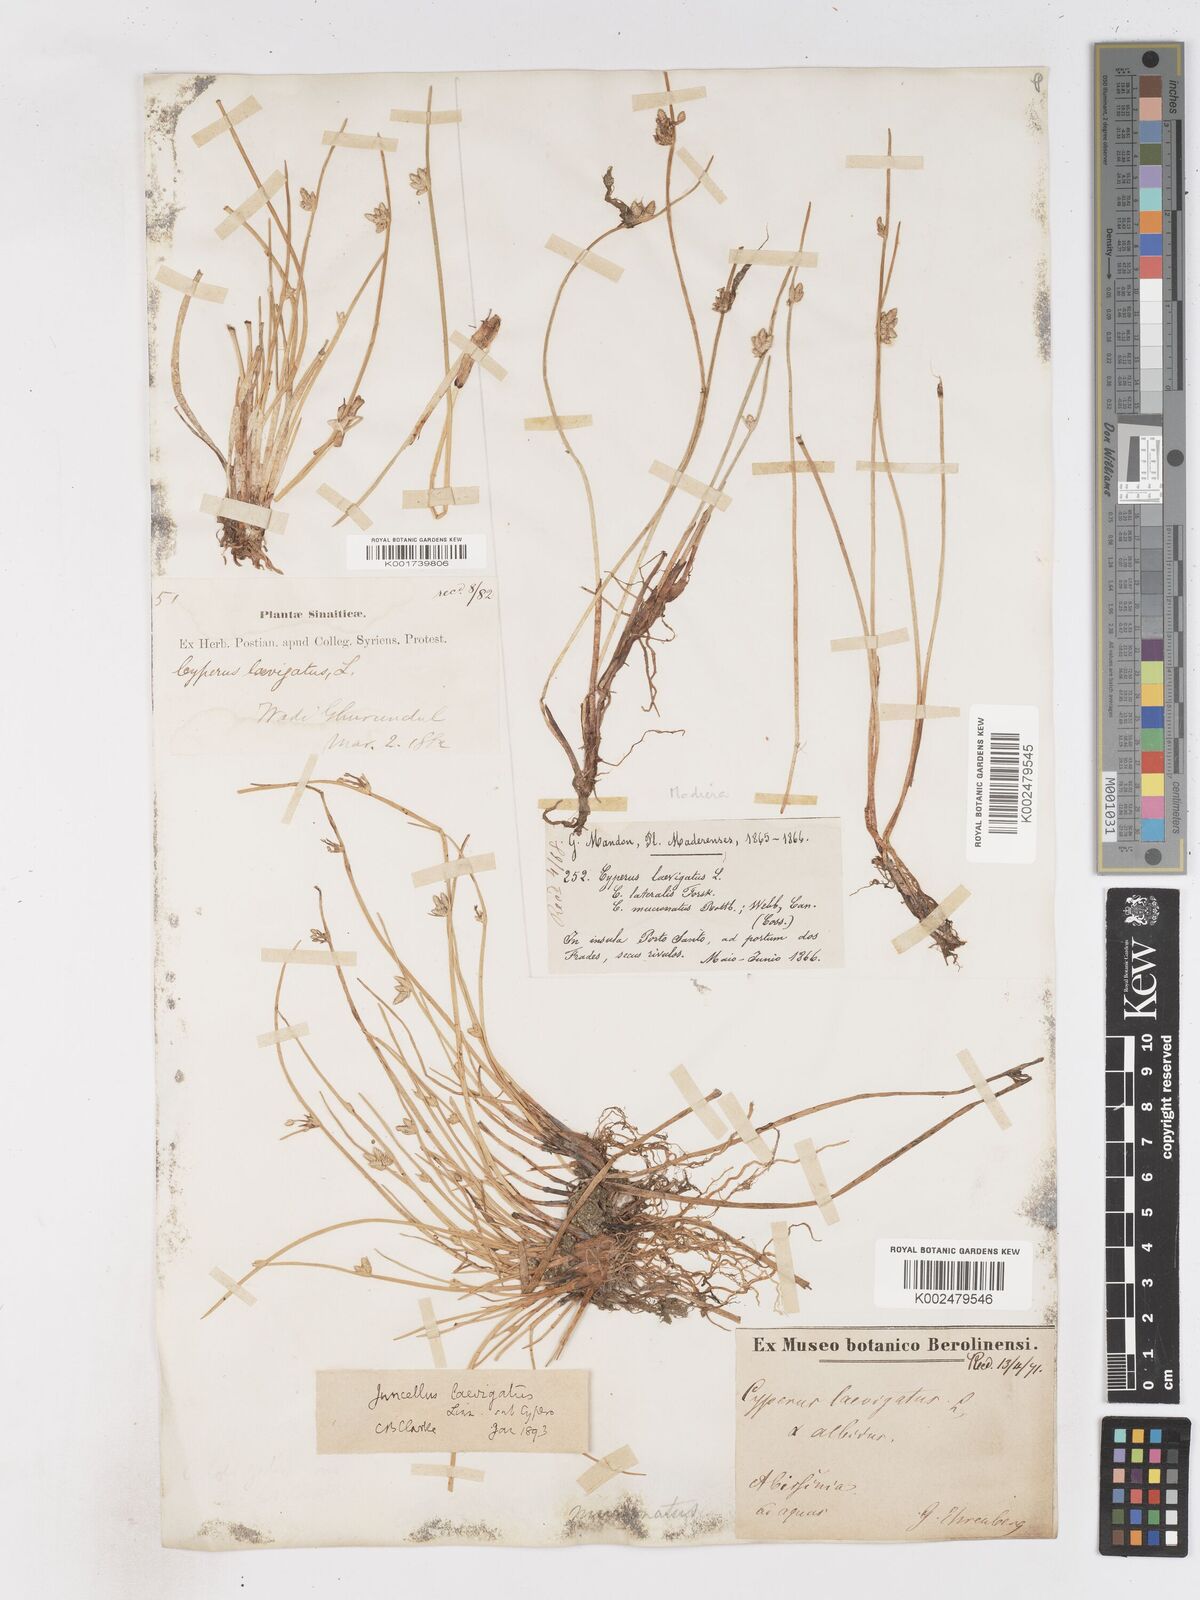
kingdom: Plantae
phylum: Tracheophyta
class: Liliopsida
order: Poales
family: Cyperaceae
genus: Cyperus
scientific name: Cyperus laevigatus
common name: Smooth flat sedge
